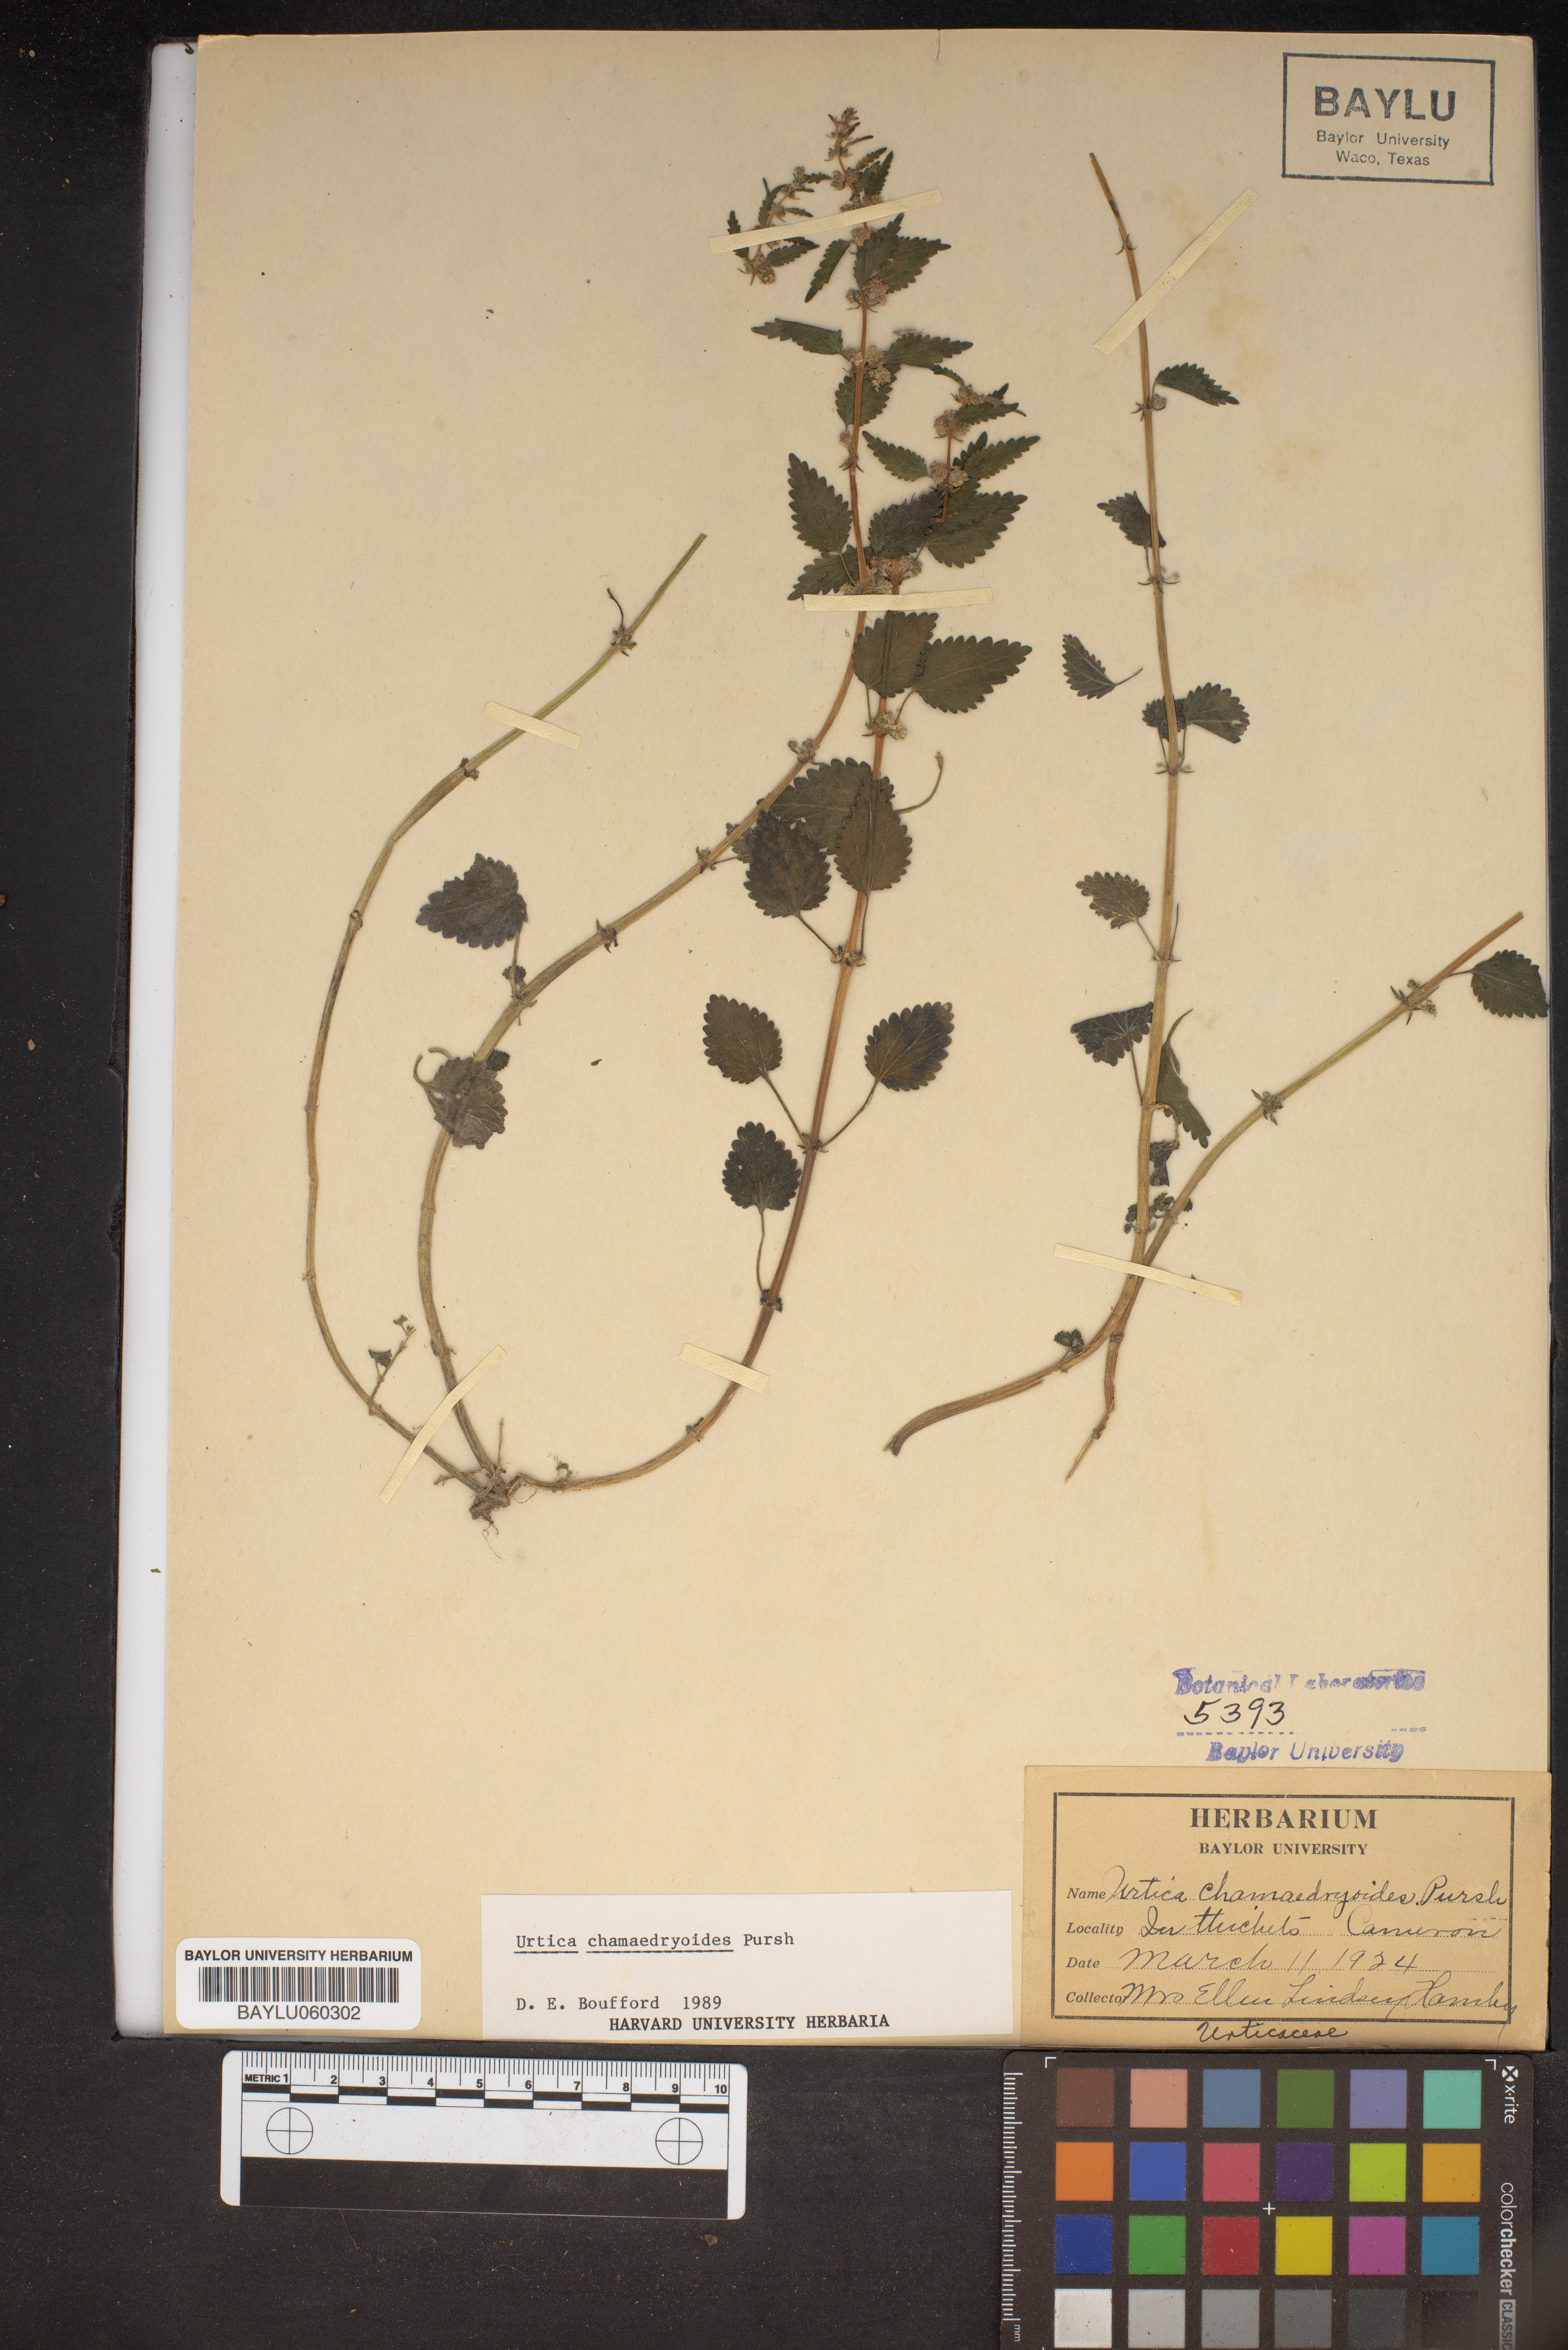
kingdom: Plantae
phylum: Tracheophyta
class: Magnoliopsida
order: Rosales
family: Urticaceae
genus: Urtica
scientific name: Urtica chamaedryoides
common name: Heart-leaf nettle
